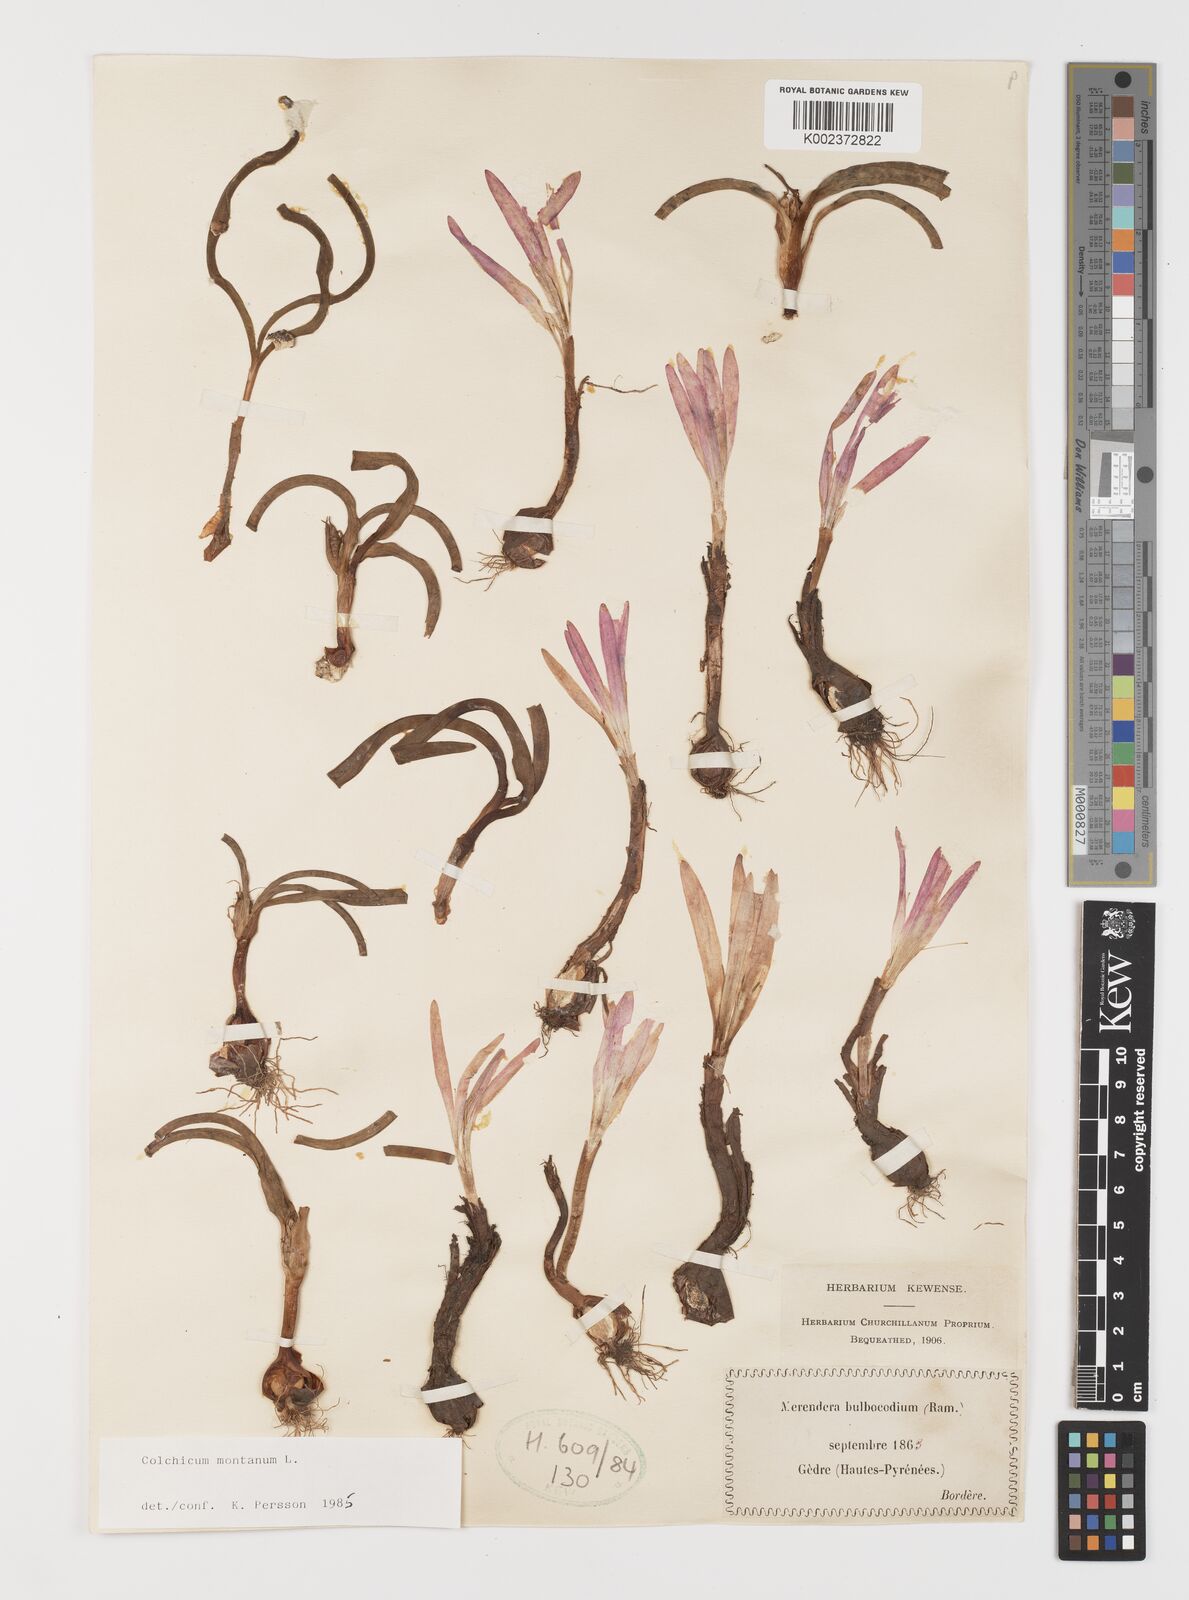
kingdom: Plantae
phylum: Tracheophyta
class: Liliopsida
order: Liliales
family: Colchicaceae
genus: Colchicum
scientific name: Colchicum montanum
